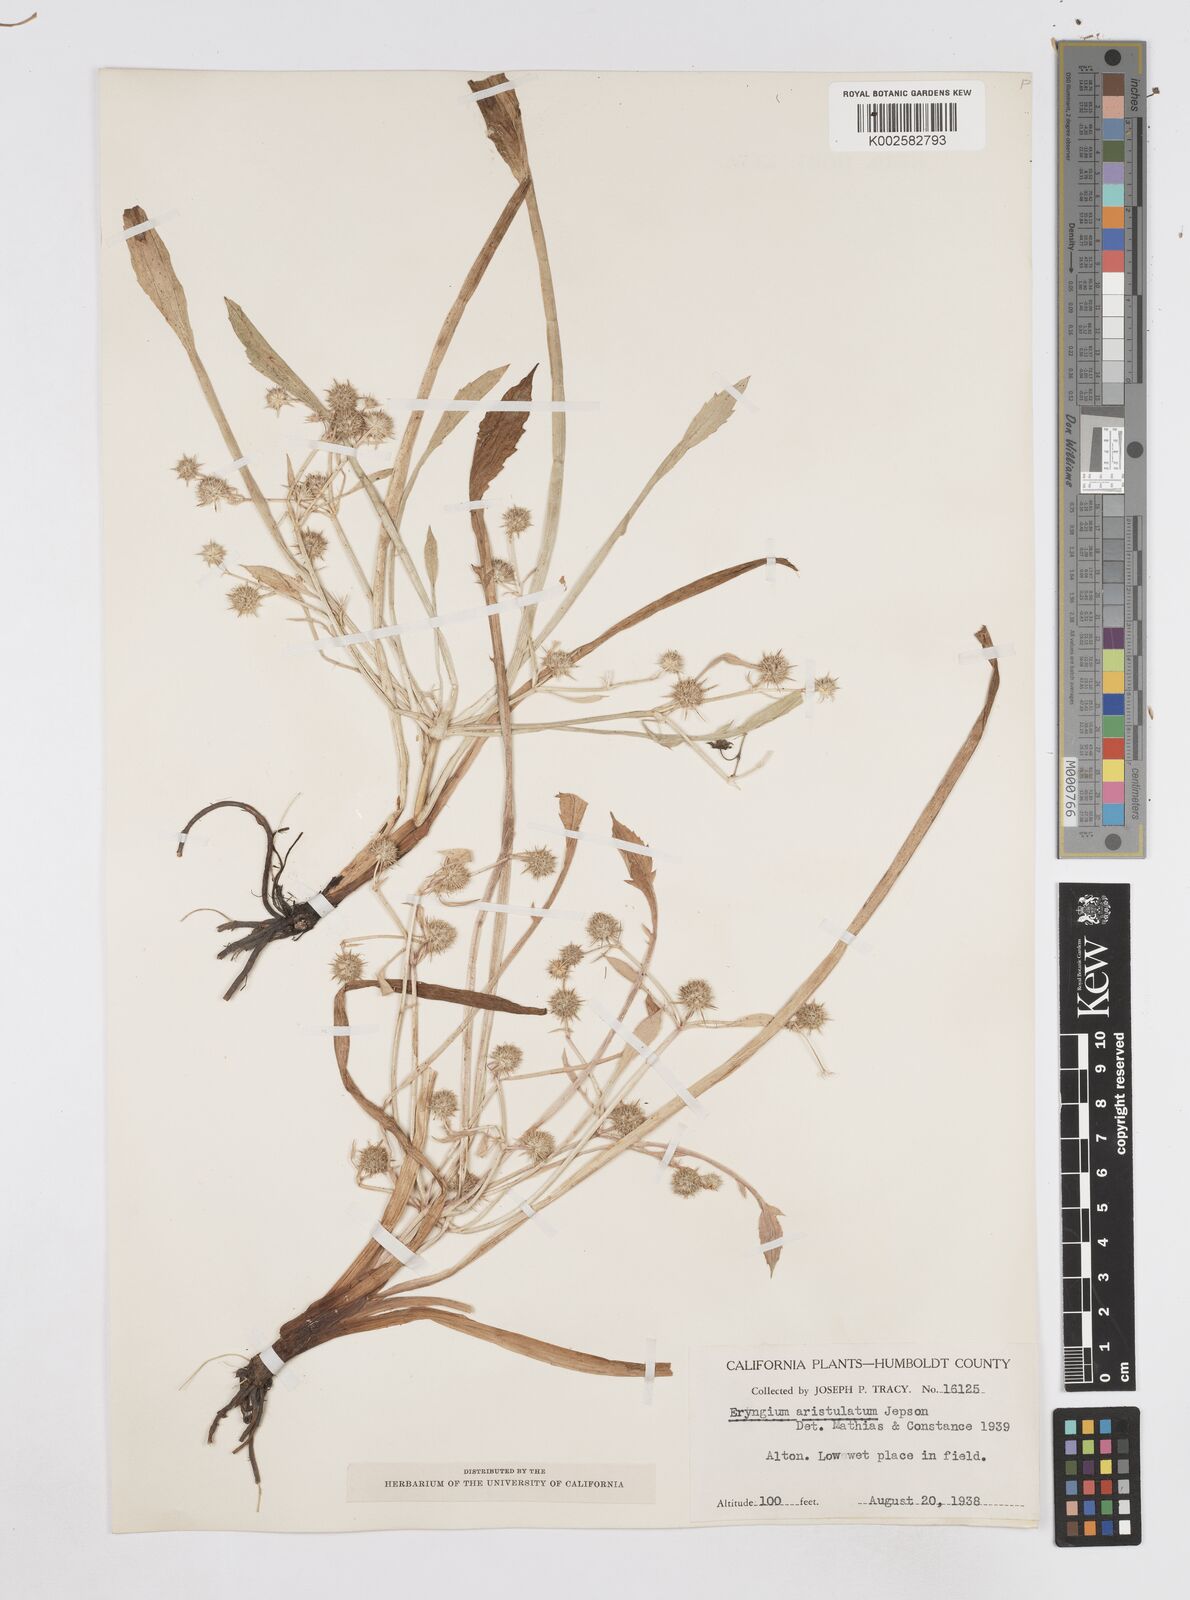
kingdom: Plantae
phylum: Tracheophyta
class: Magnoliopsida
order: Apiales
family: Apiaceae
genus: Eryngium
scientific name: Eryngium aristulatum
